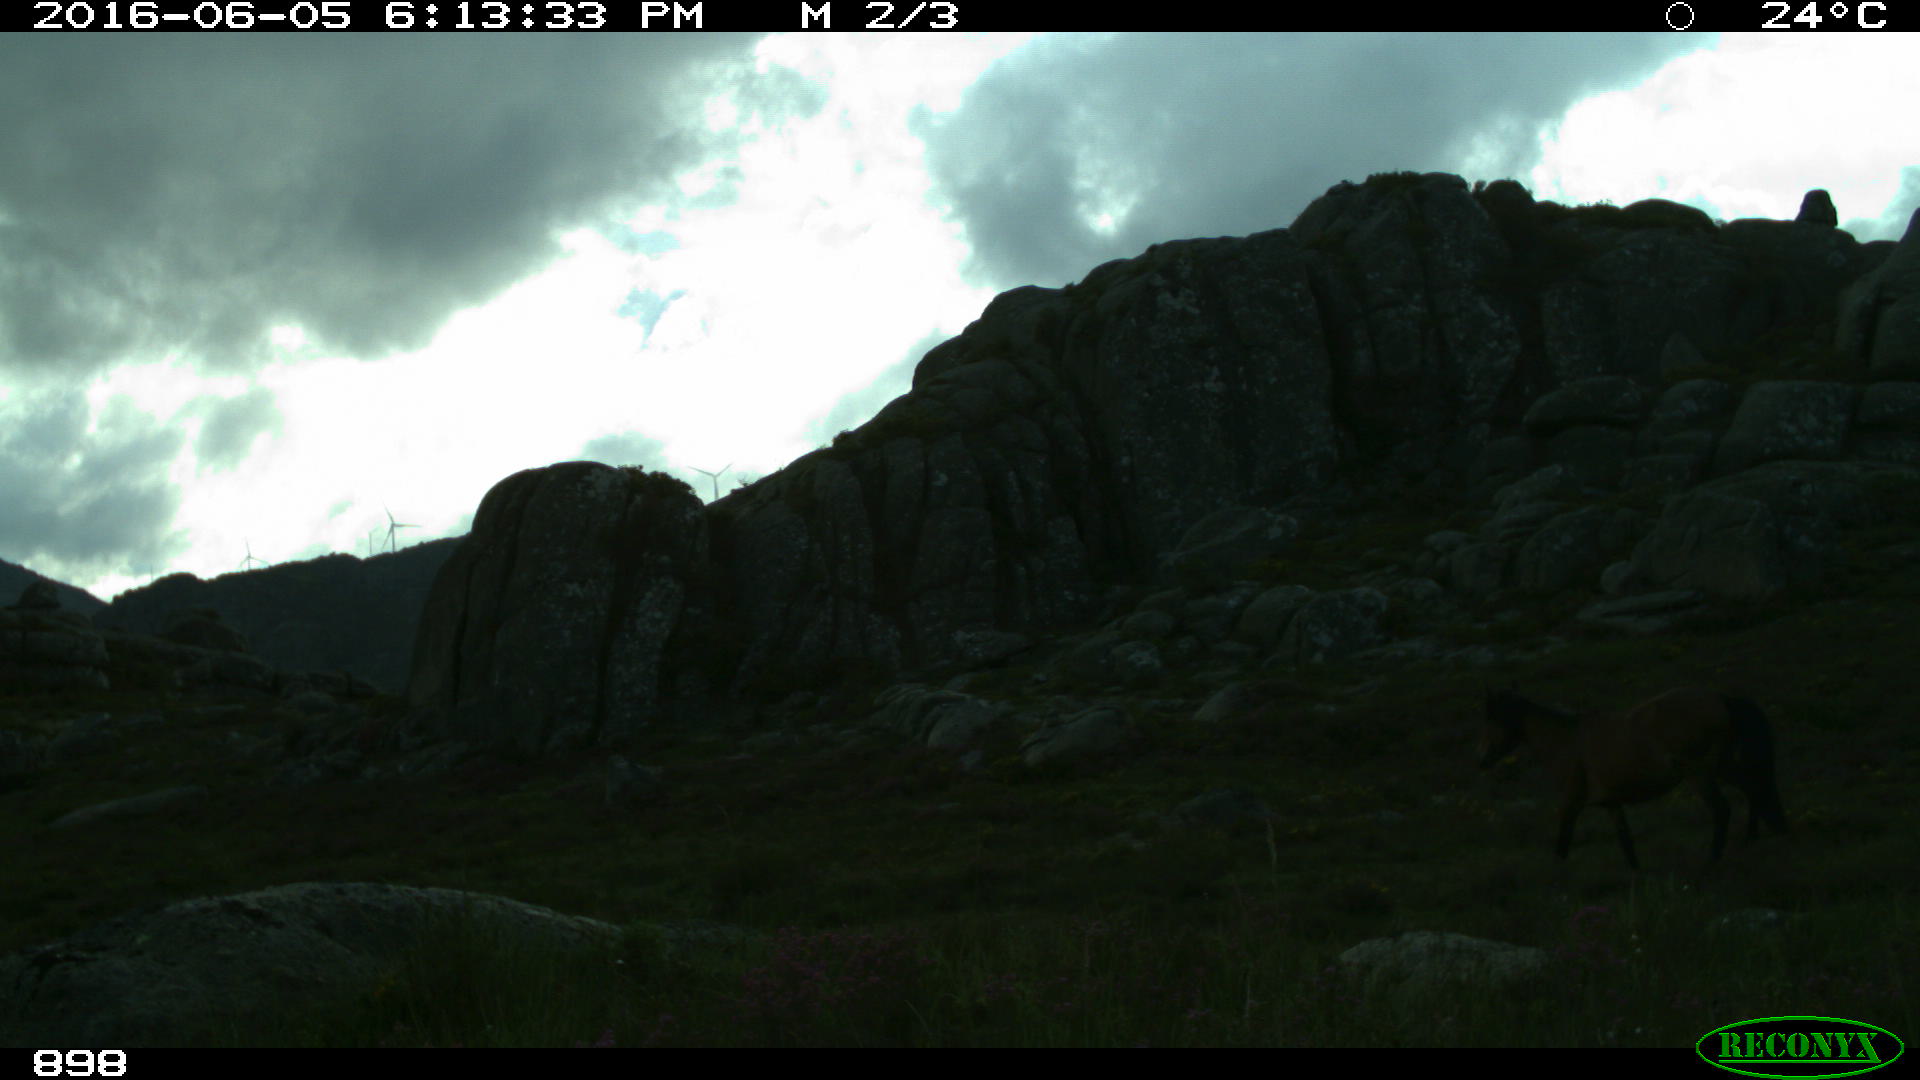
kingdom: Animalia
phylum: Chordata
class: Mammalia
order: Perissodactyla
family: Equidae
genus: Equus
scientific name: Equus caballus
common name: Horse
